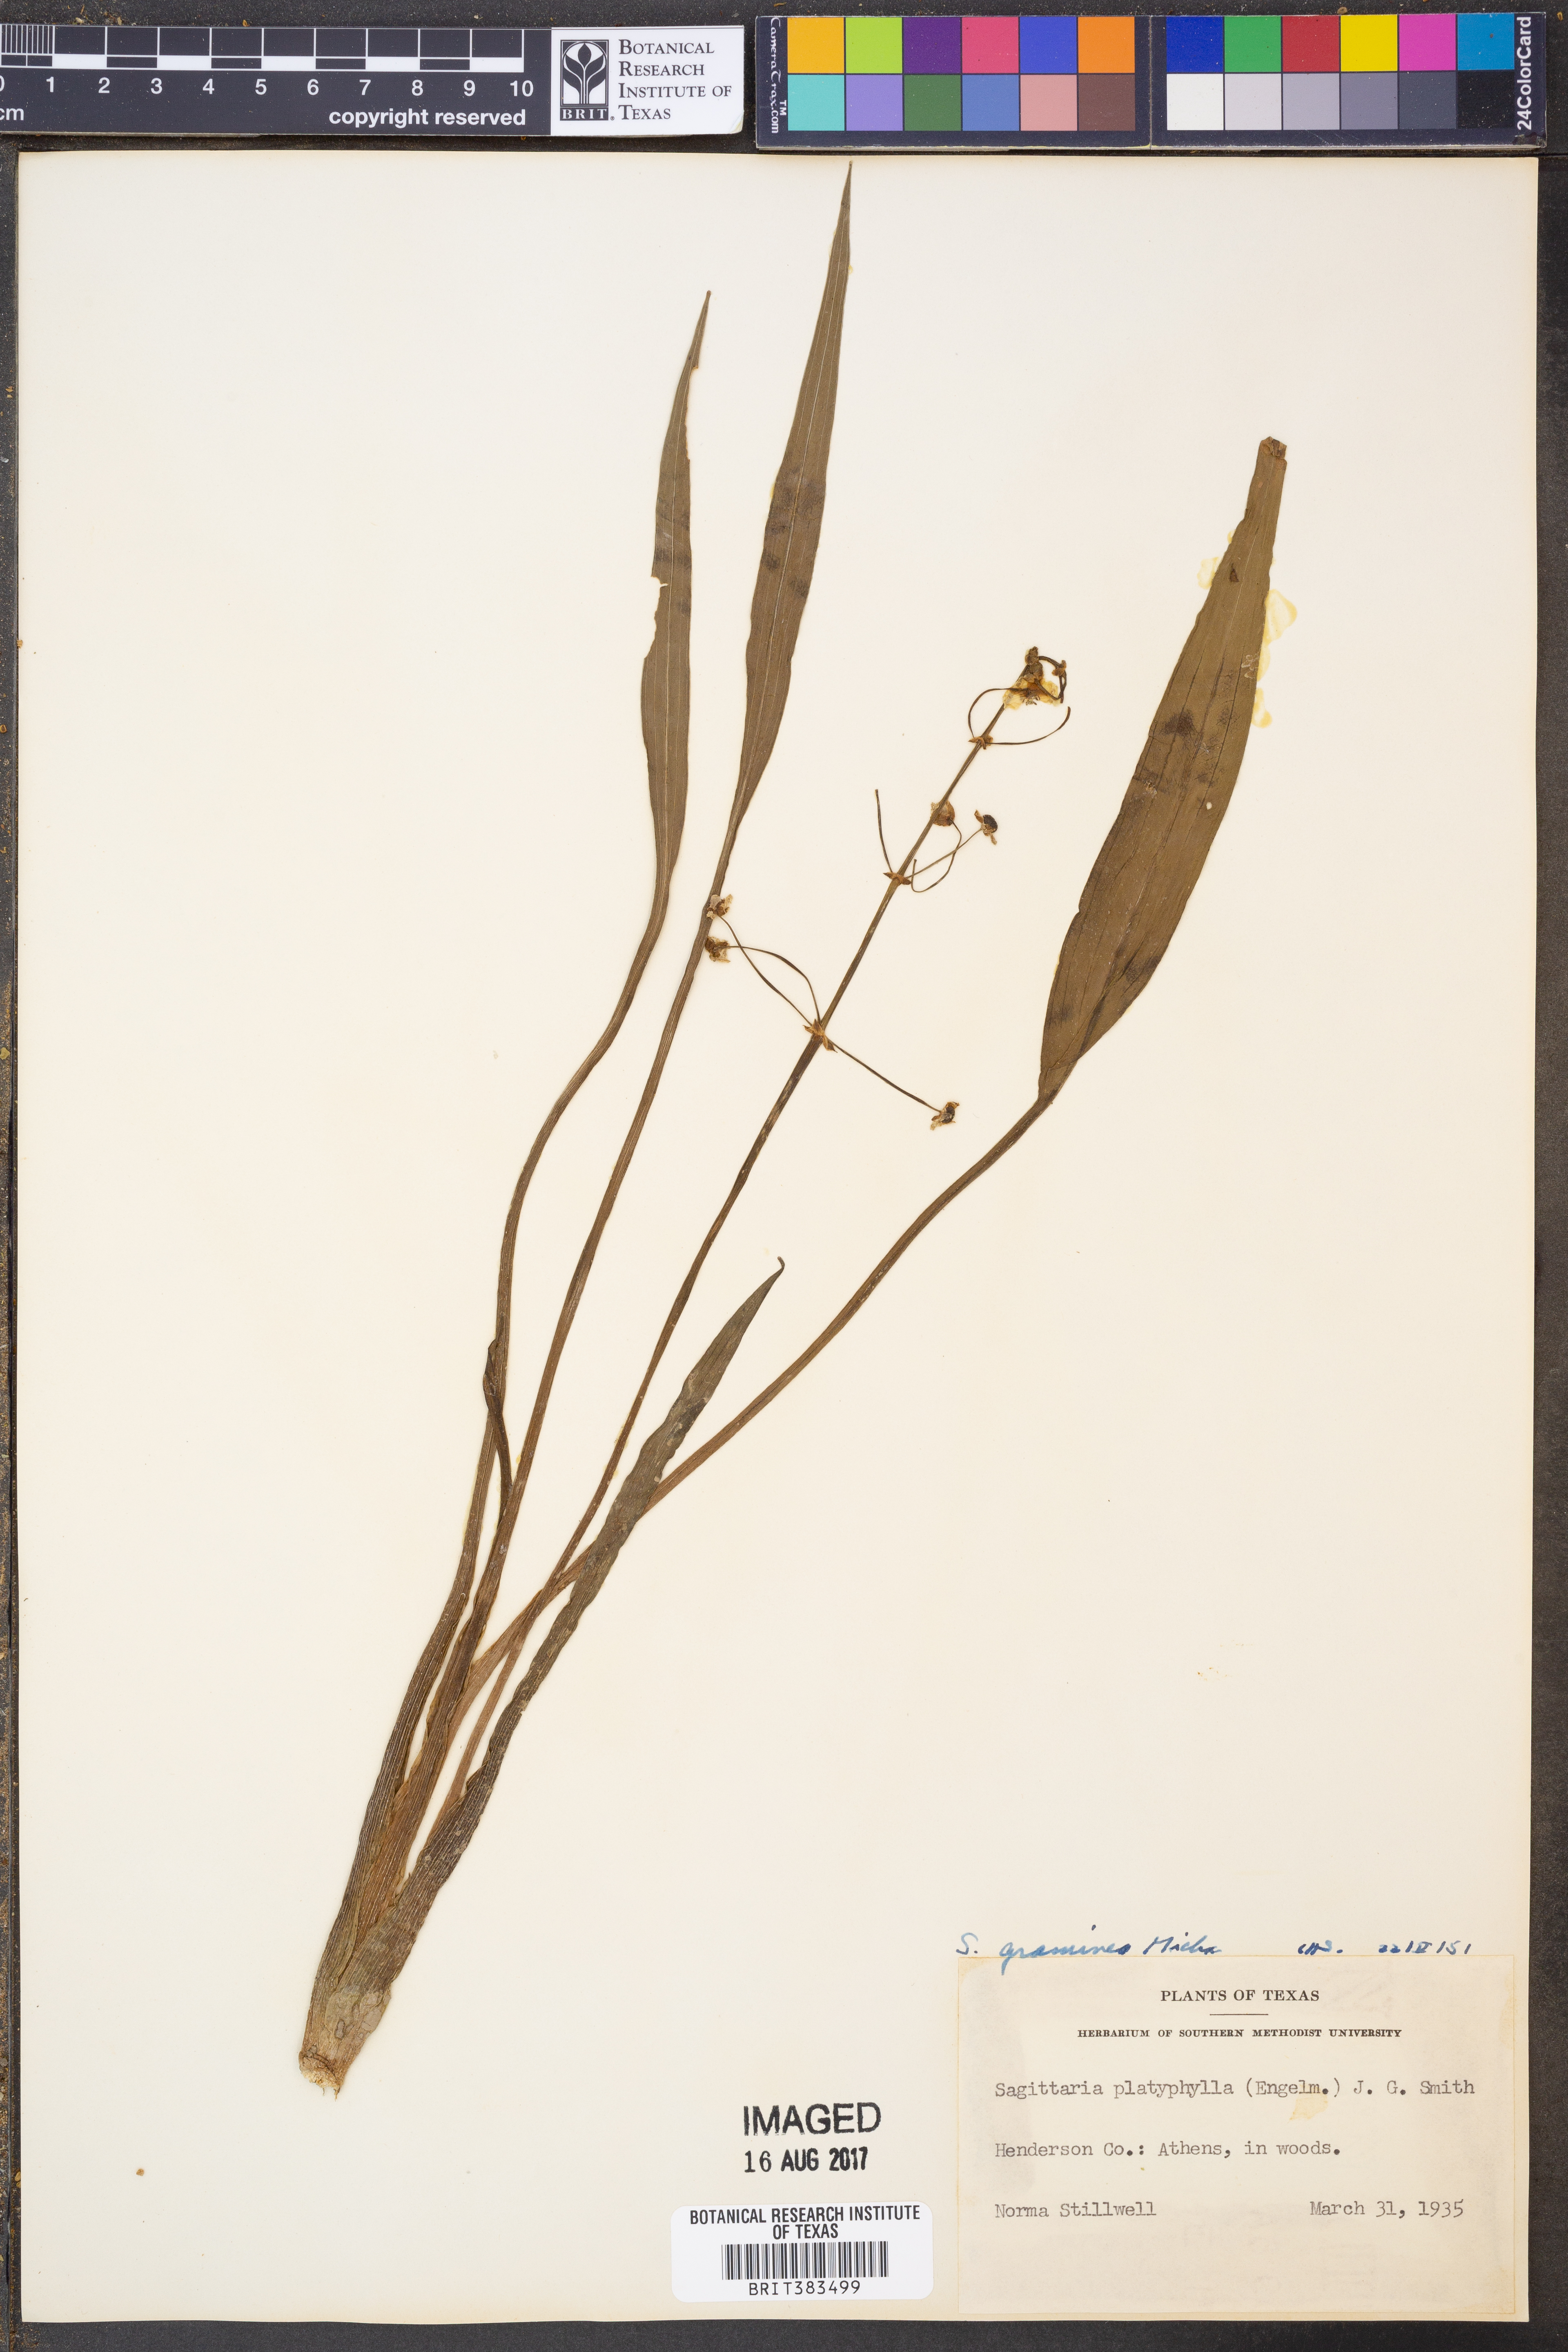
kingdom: Plantae
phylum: Tracheophyta
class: Liliopsida
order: Alismatales
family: Alismataceae
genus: Sagittaria
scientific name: Sagittaria graminea
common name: Grass-leaved arrowhead
